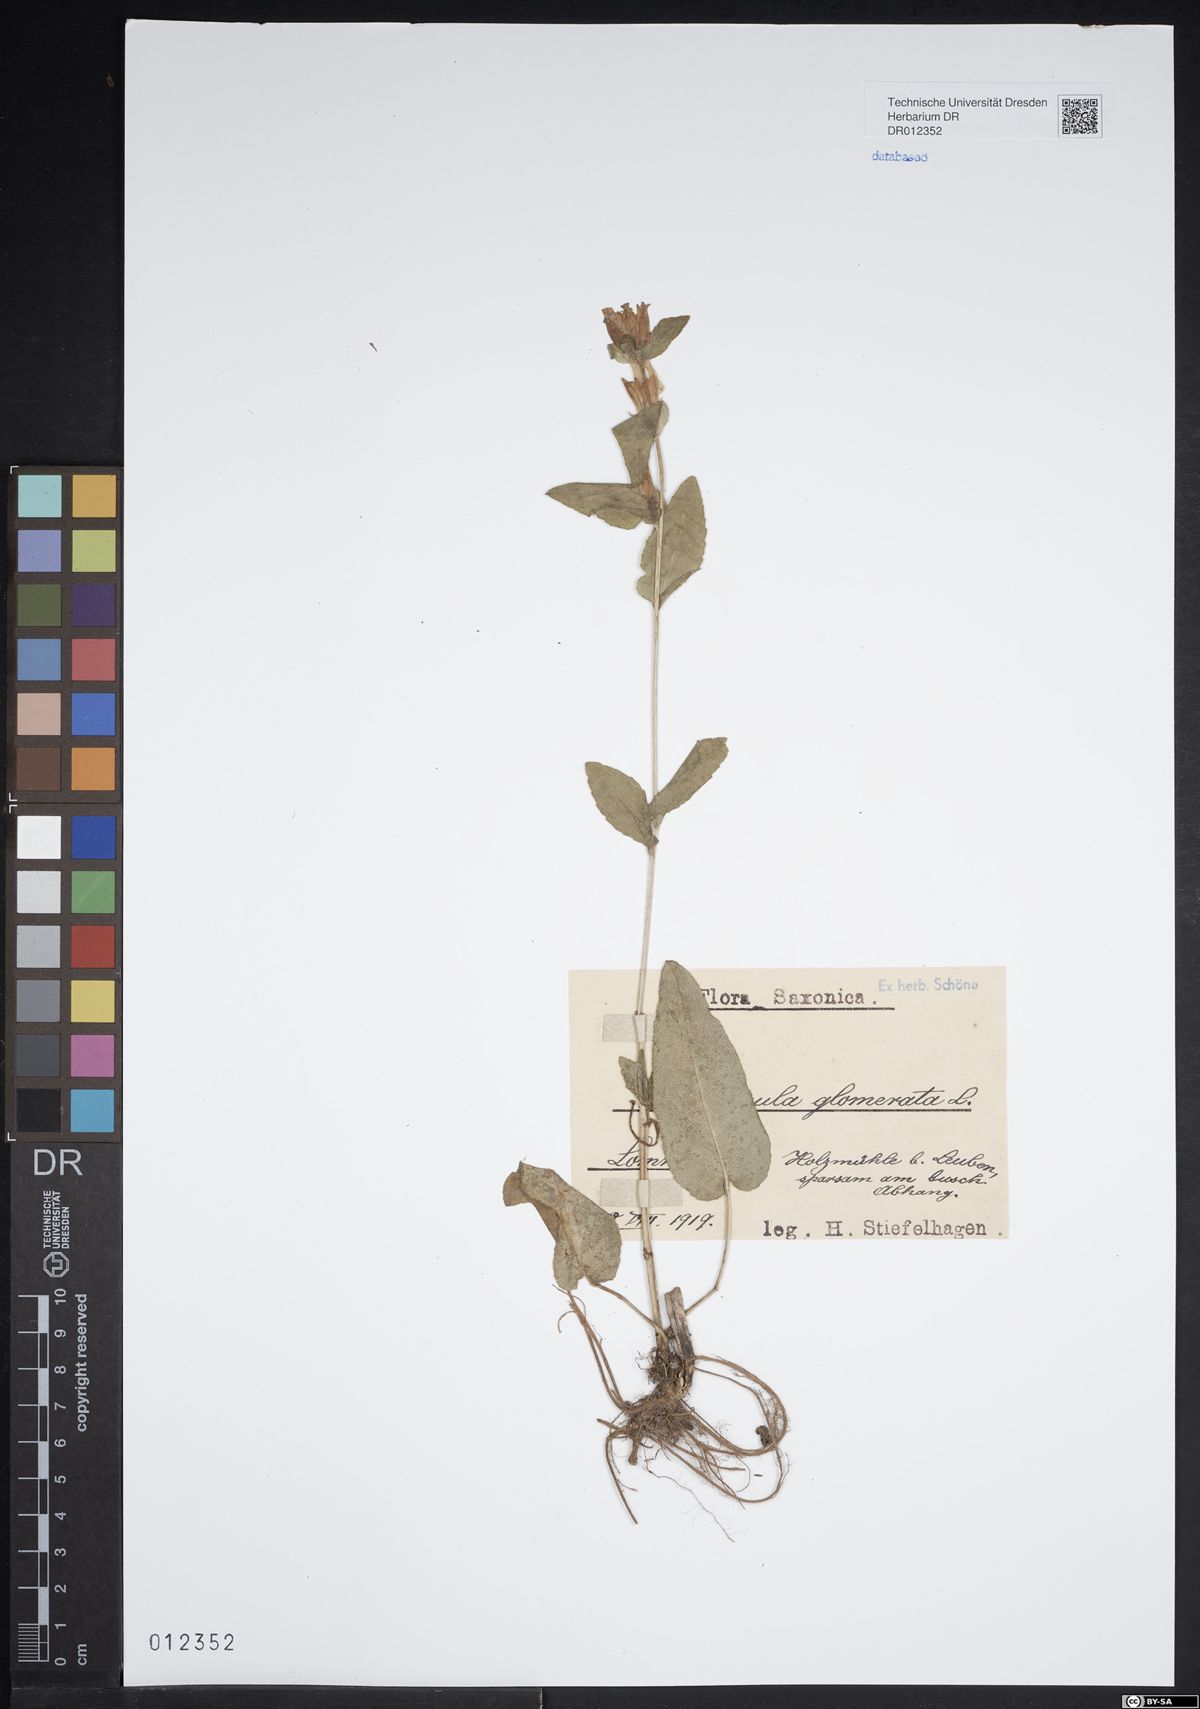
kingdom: Plantae
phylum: Tracheophyta
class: Magnoliopsida
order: Asterales
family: Campanulaceae
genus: Campanula
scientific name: Campanula glomerata
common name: Clustered bellflower
